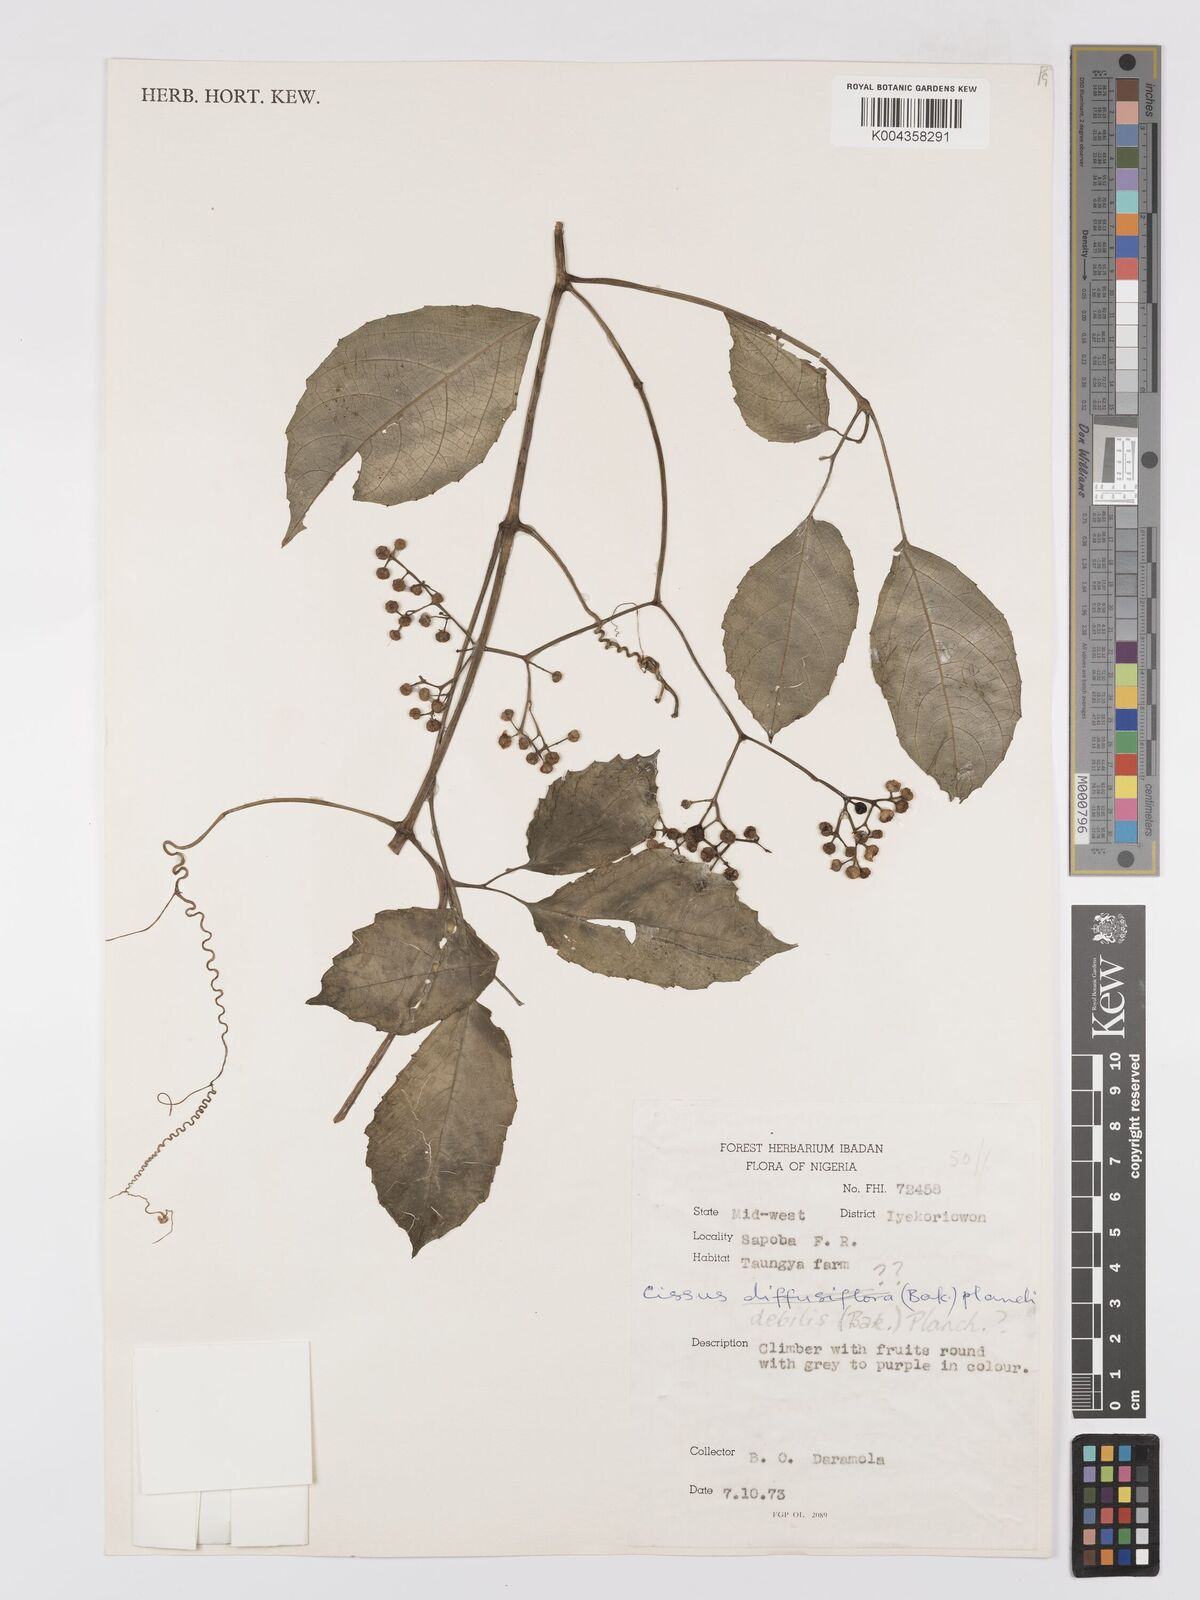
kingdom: Plantae
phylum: Tracheophyta
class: Magnoliopsida
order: Vitales
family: Vitaceae
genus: Afrocayratia
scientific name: Afrocayratia debilis
